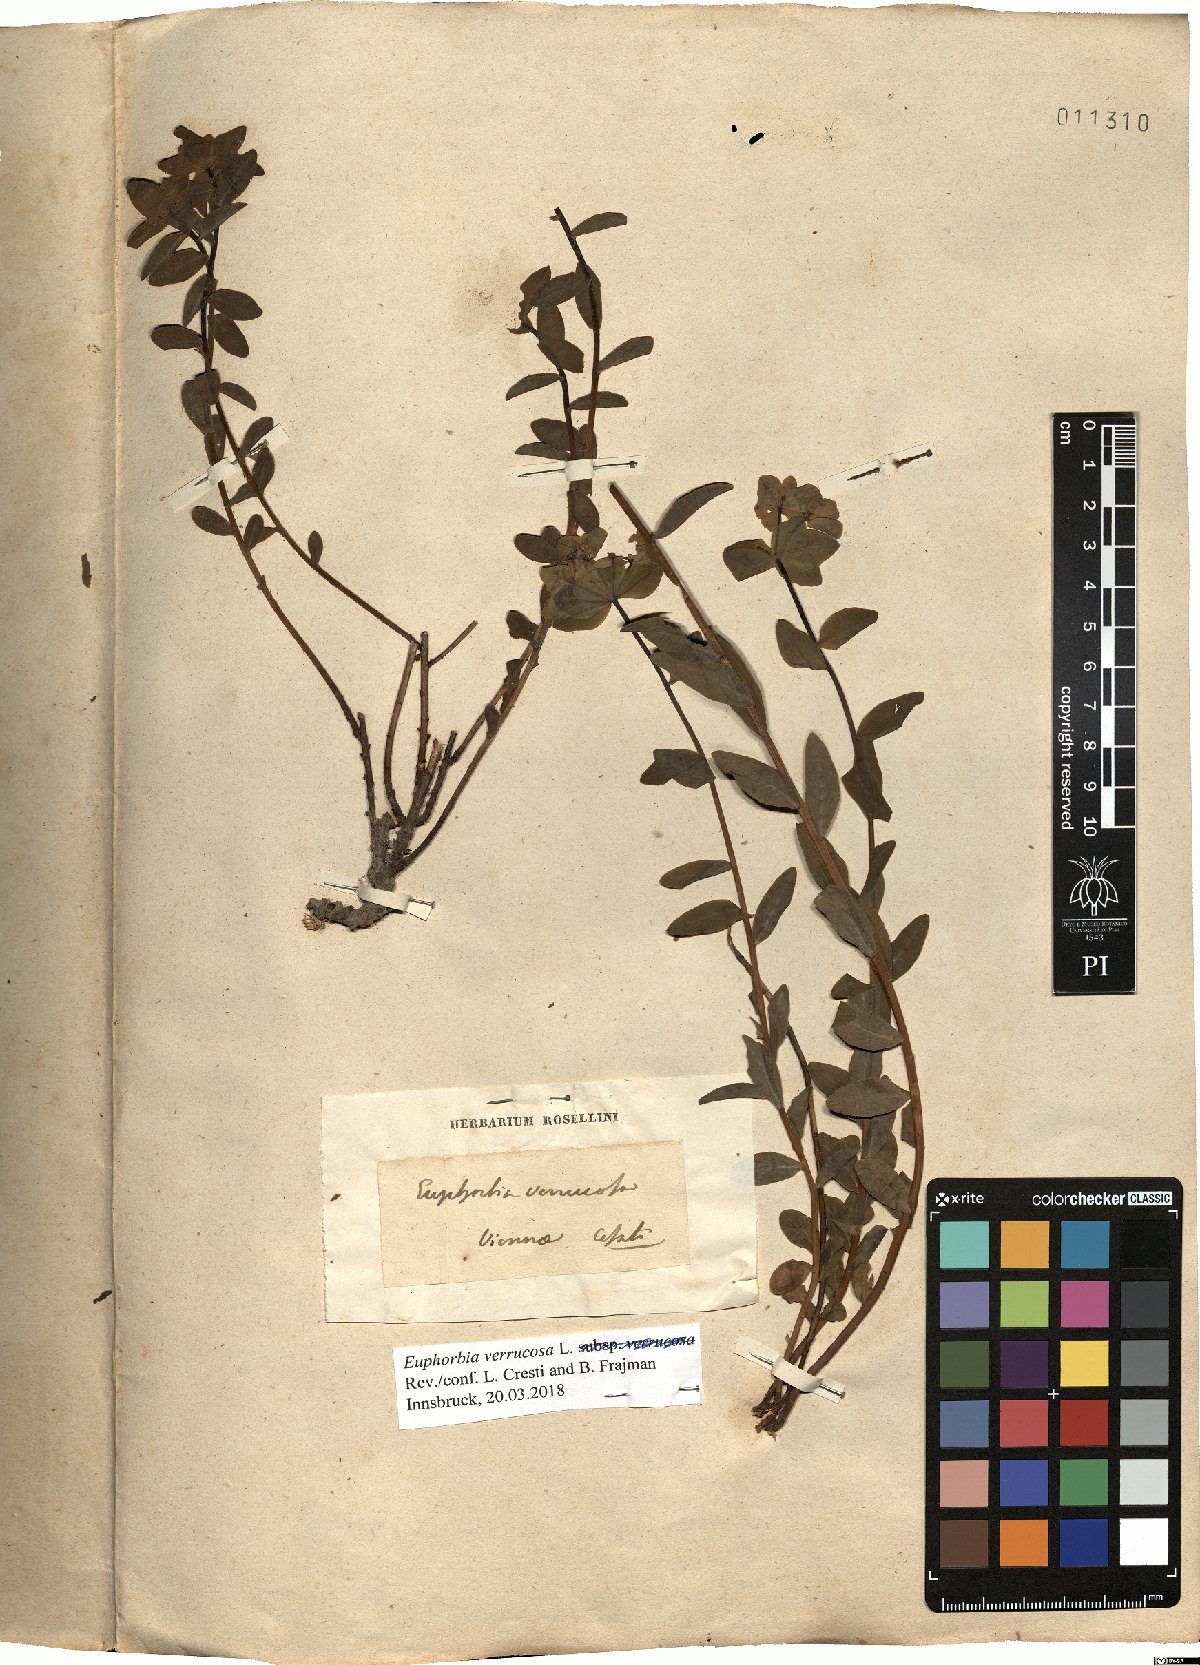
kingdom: Plantae
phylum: Tracheophyta
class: Magnoliopsida
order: Malpighiales
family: Euphorbiaceae
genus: Euphorbia
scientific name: Euphorbia verrucosa
